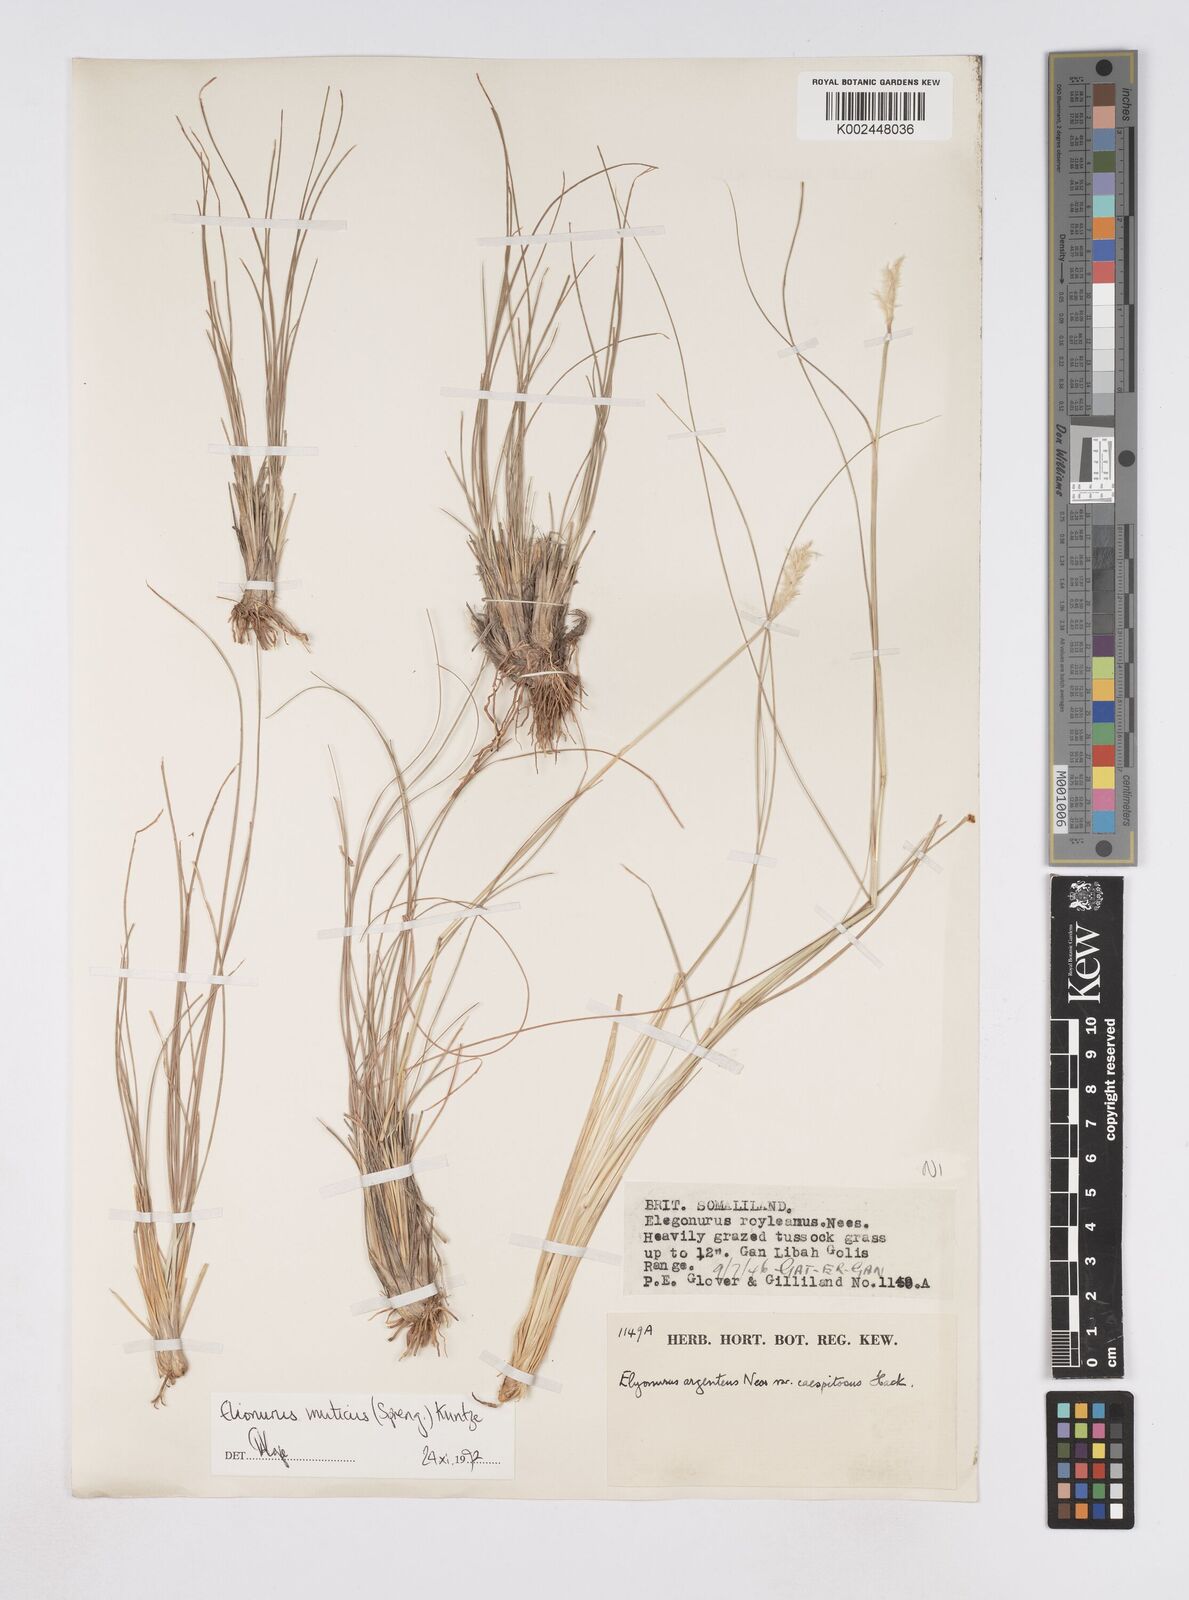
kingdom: Plantae
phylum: Tracheophyta
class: Liliopsida
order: Poales
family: Poaceae
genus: Elionurus
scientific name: Elionurus muticus
